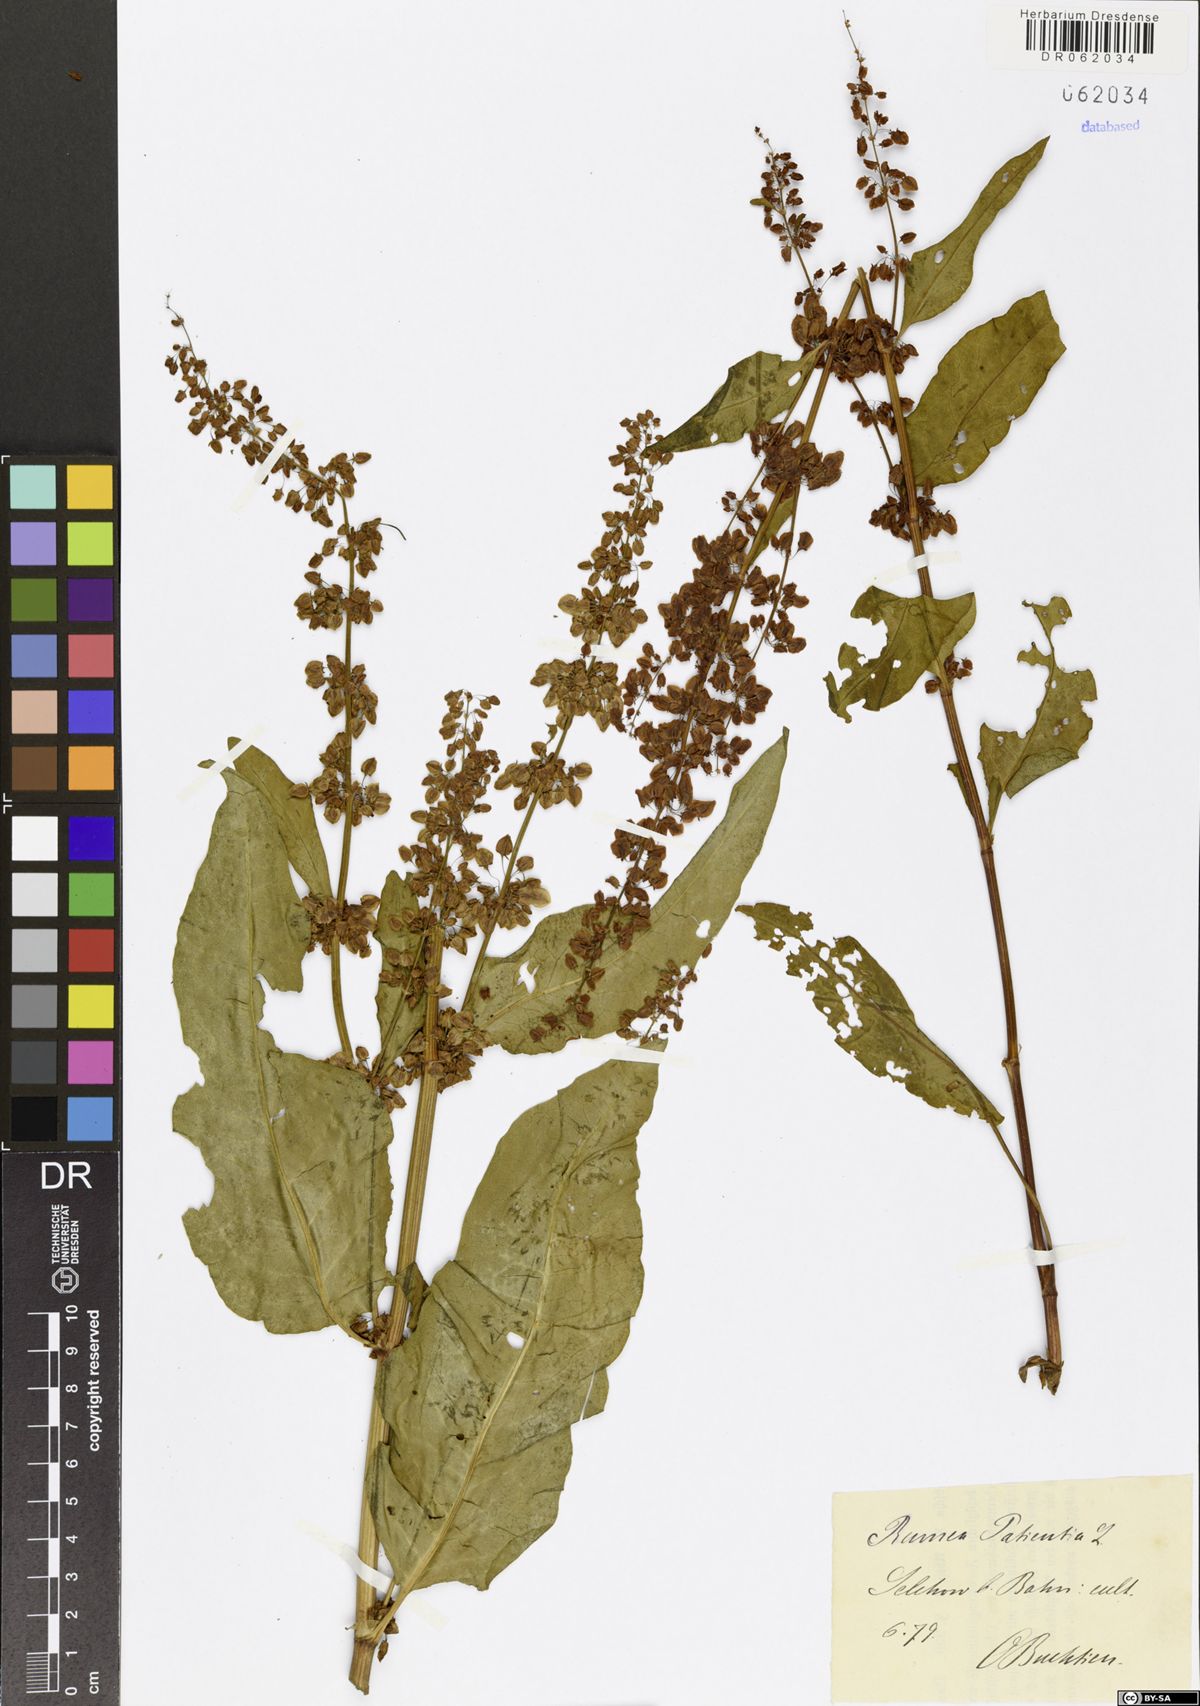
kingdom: Plantae
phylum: Tracheophyta
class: Magnoliopsida
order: Caryophyllales
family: Polygonaceae
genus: Rumex
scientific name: Rumex patientia
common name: Patience dock
